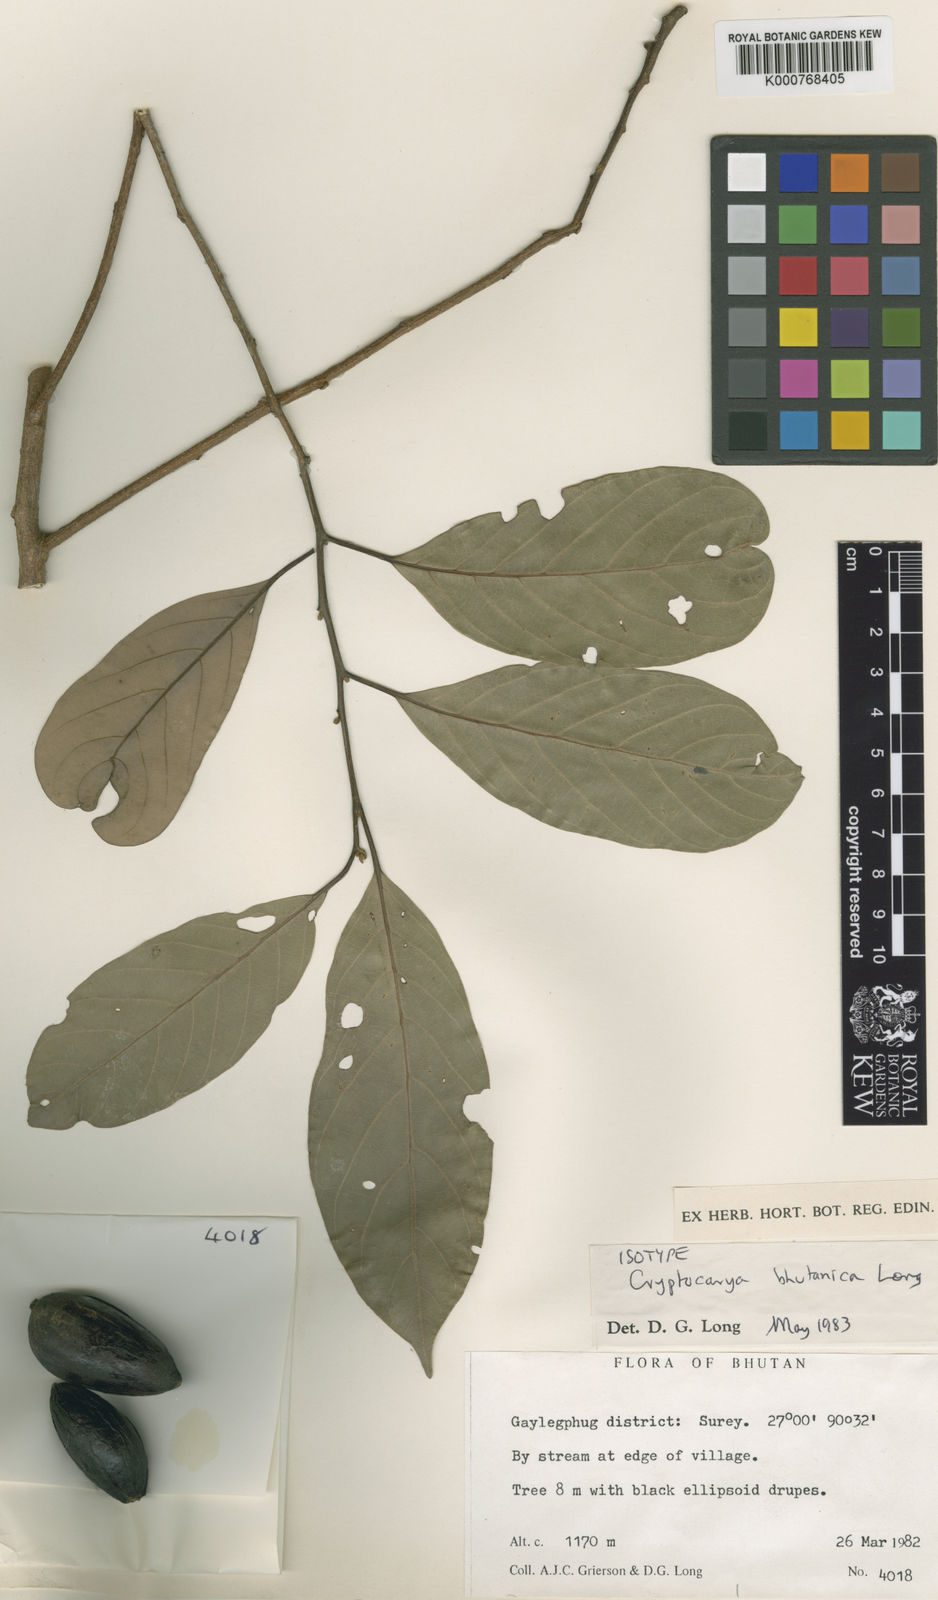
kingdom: Plantae
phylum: Tracheophyta
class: Magnoliopsida
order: Laurales
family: Lauraceae
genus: Cryptocarya
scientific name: Cryptocarya bhutanica
